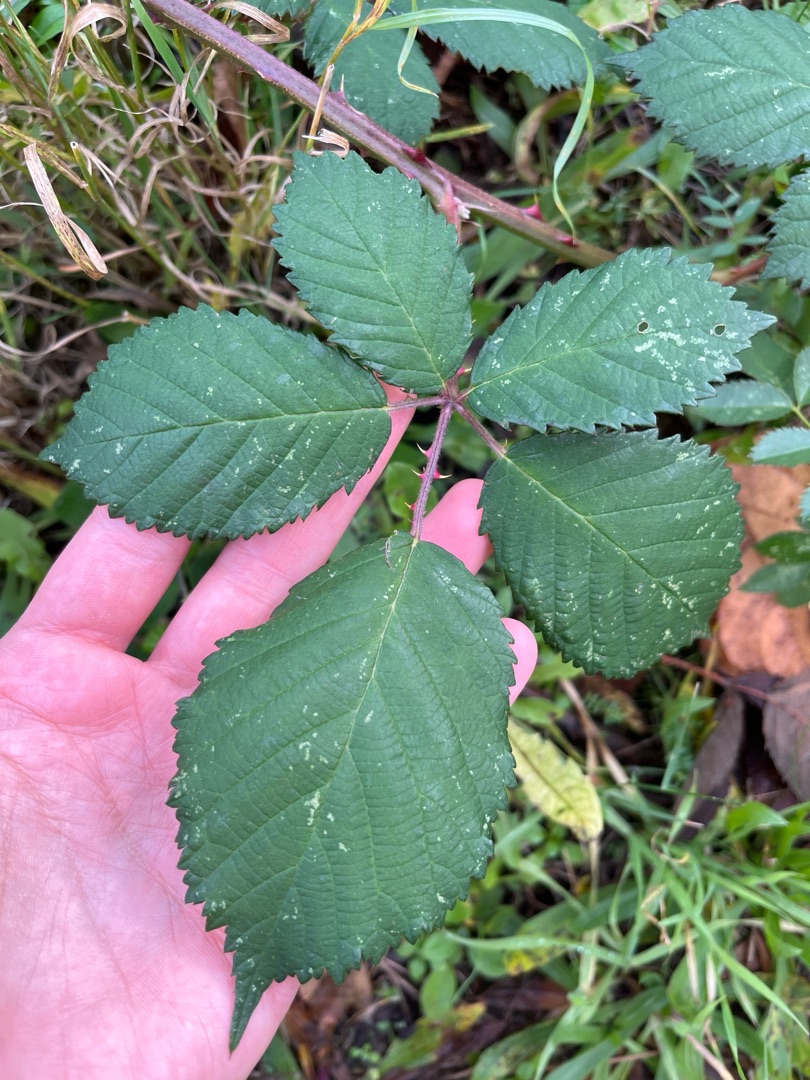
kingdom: Plantae
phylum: Tracheophyta
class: Magnoliopsida
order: Rosales
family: Rosaceae
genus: Rubus
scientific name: Rubus armeniacus
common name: Armensk brombær
